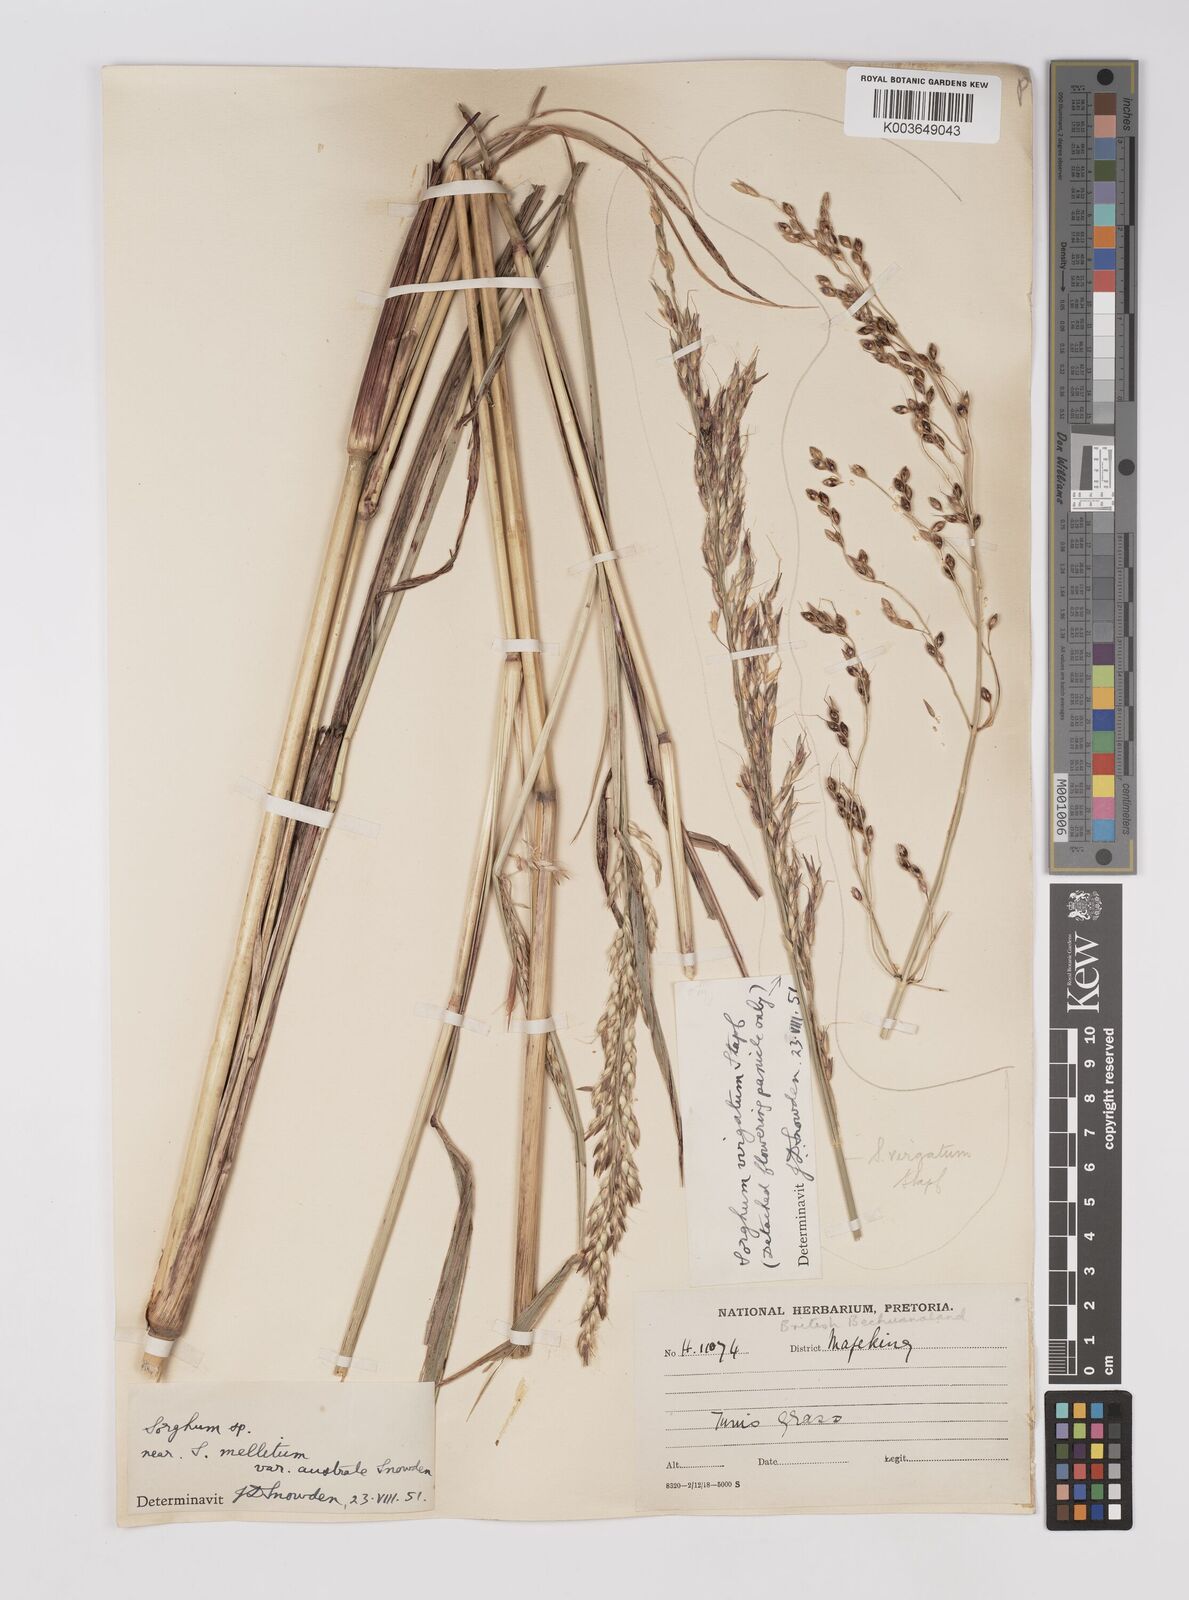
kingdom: Plantae
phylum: Tracheophyta
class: Liliopsida
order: Poales
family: Poaceae
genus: Sorghum
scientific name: Sorghum arundinaceum
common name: Sorghum
